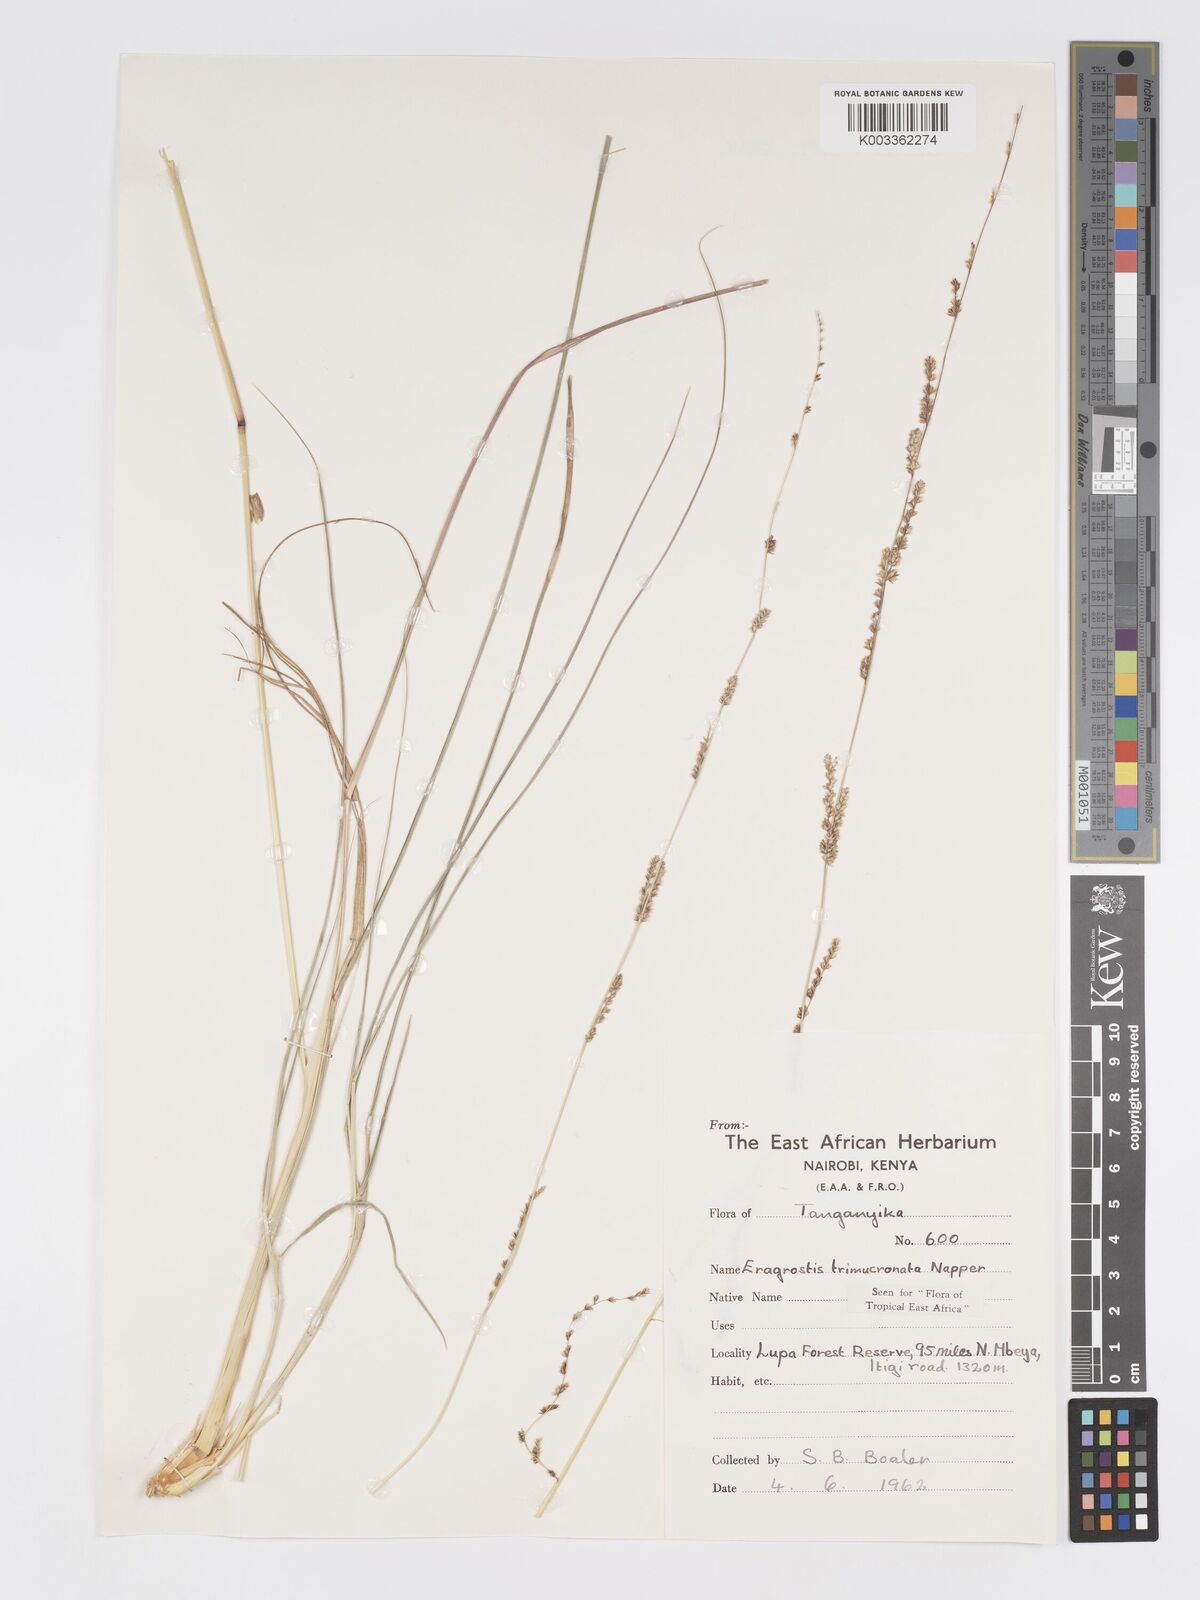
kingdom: Plantae
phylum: Tracheophyta
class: Liliopsida
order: Poales
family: Poaceae
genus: Eragrostis
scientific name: Eragrostis castellaneana
